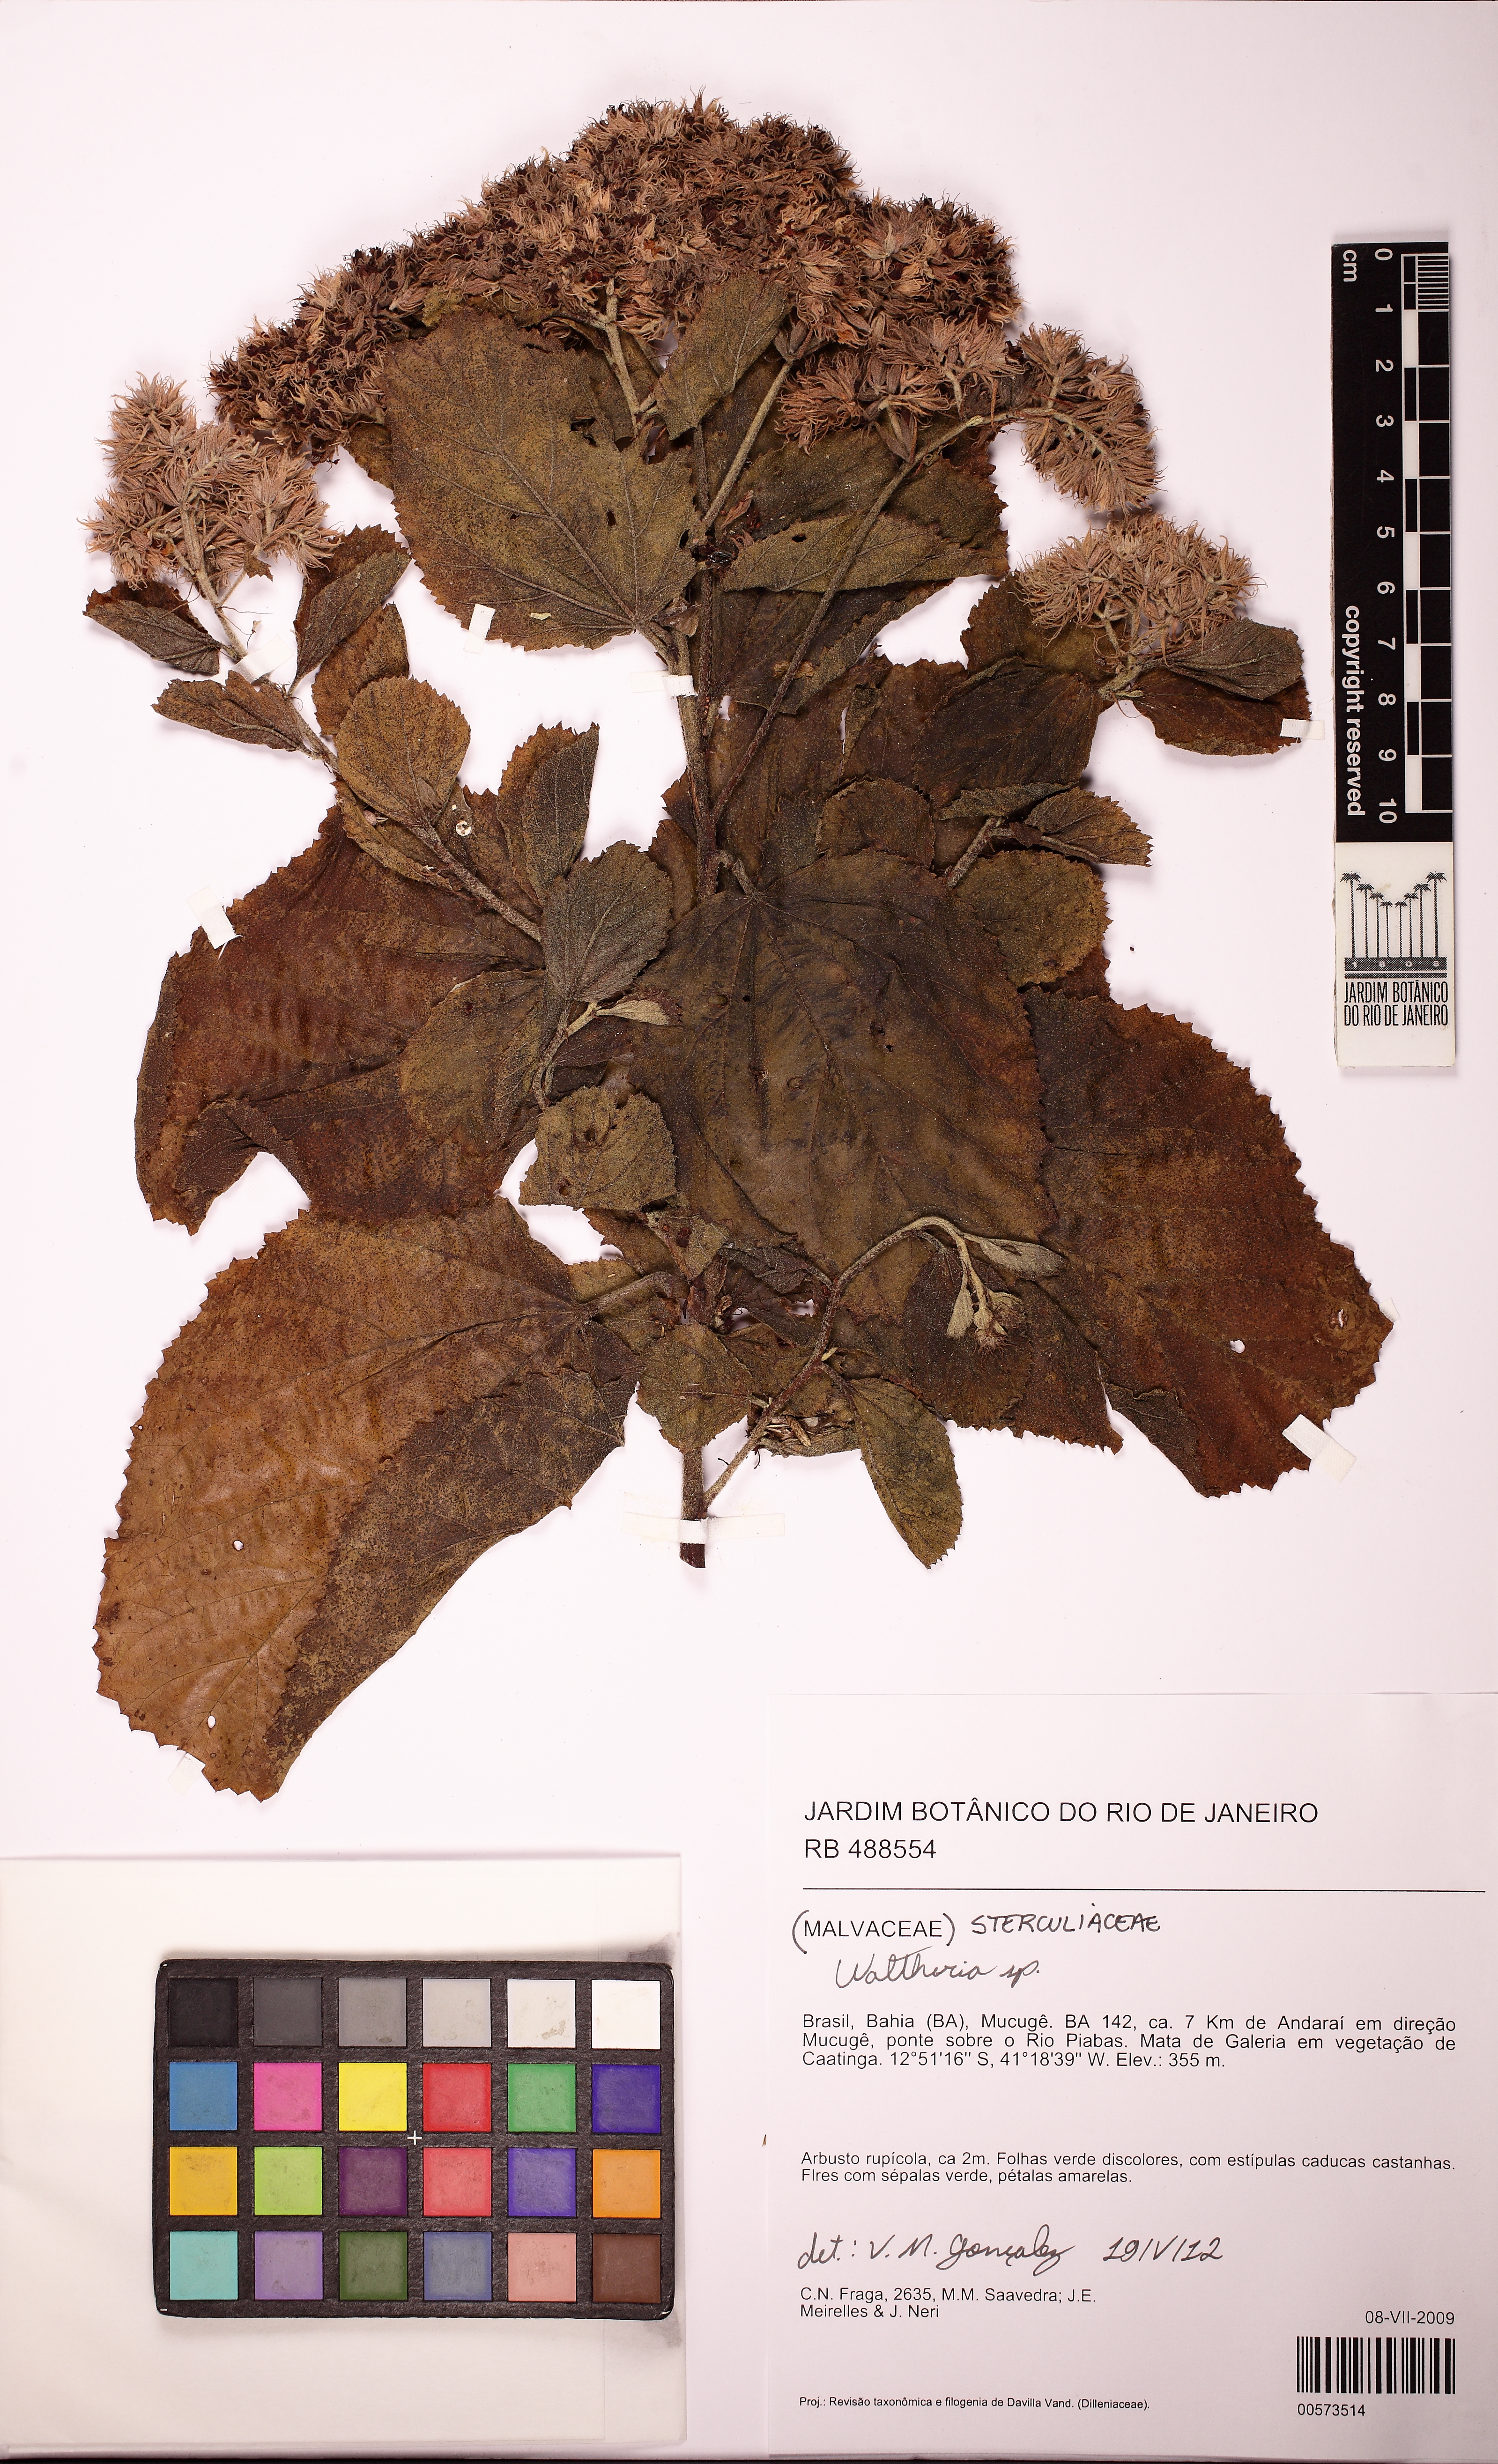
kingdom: Plantae
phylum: Tracheophyta
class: Magnoliopsida
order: Malvales
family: Malvaceae
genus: Waltheria
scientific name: Waltheria cinerescens
